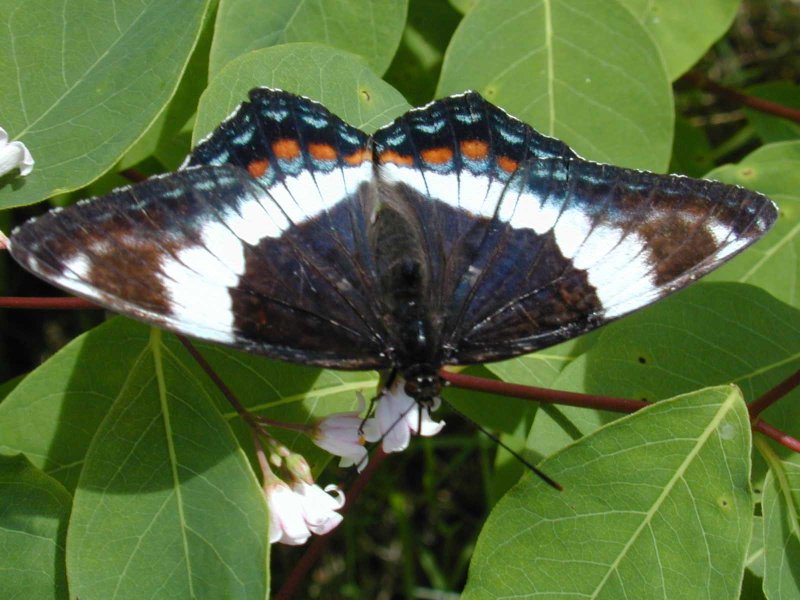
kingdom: Animalia
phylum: Arthropoda
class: Insecta
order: Lepidoptera
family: Nymphalidae
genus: Limenitis
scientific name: Limenitis arthemis
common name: Red-spotted Admiral
